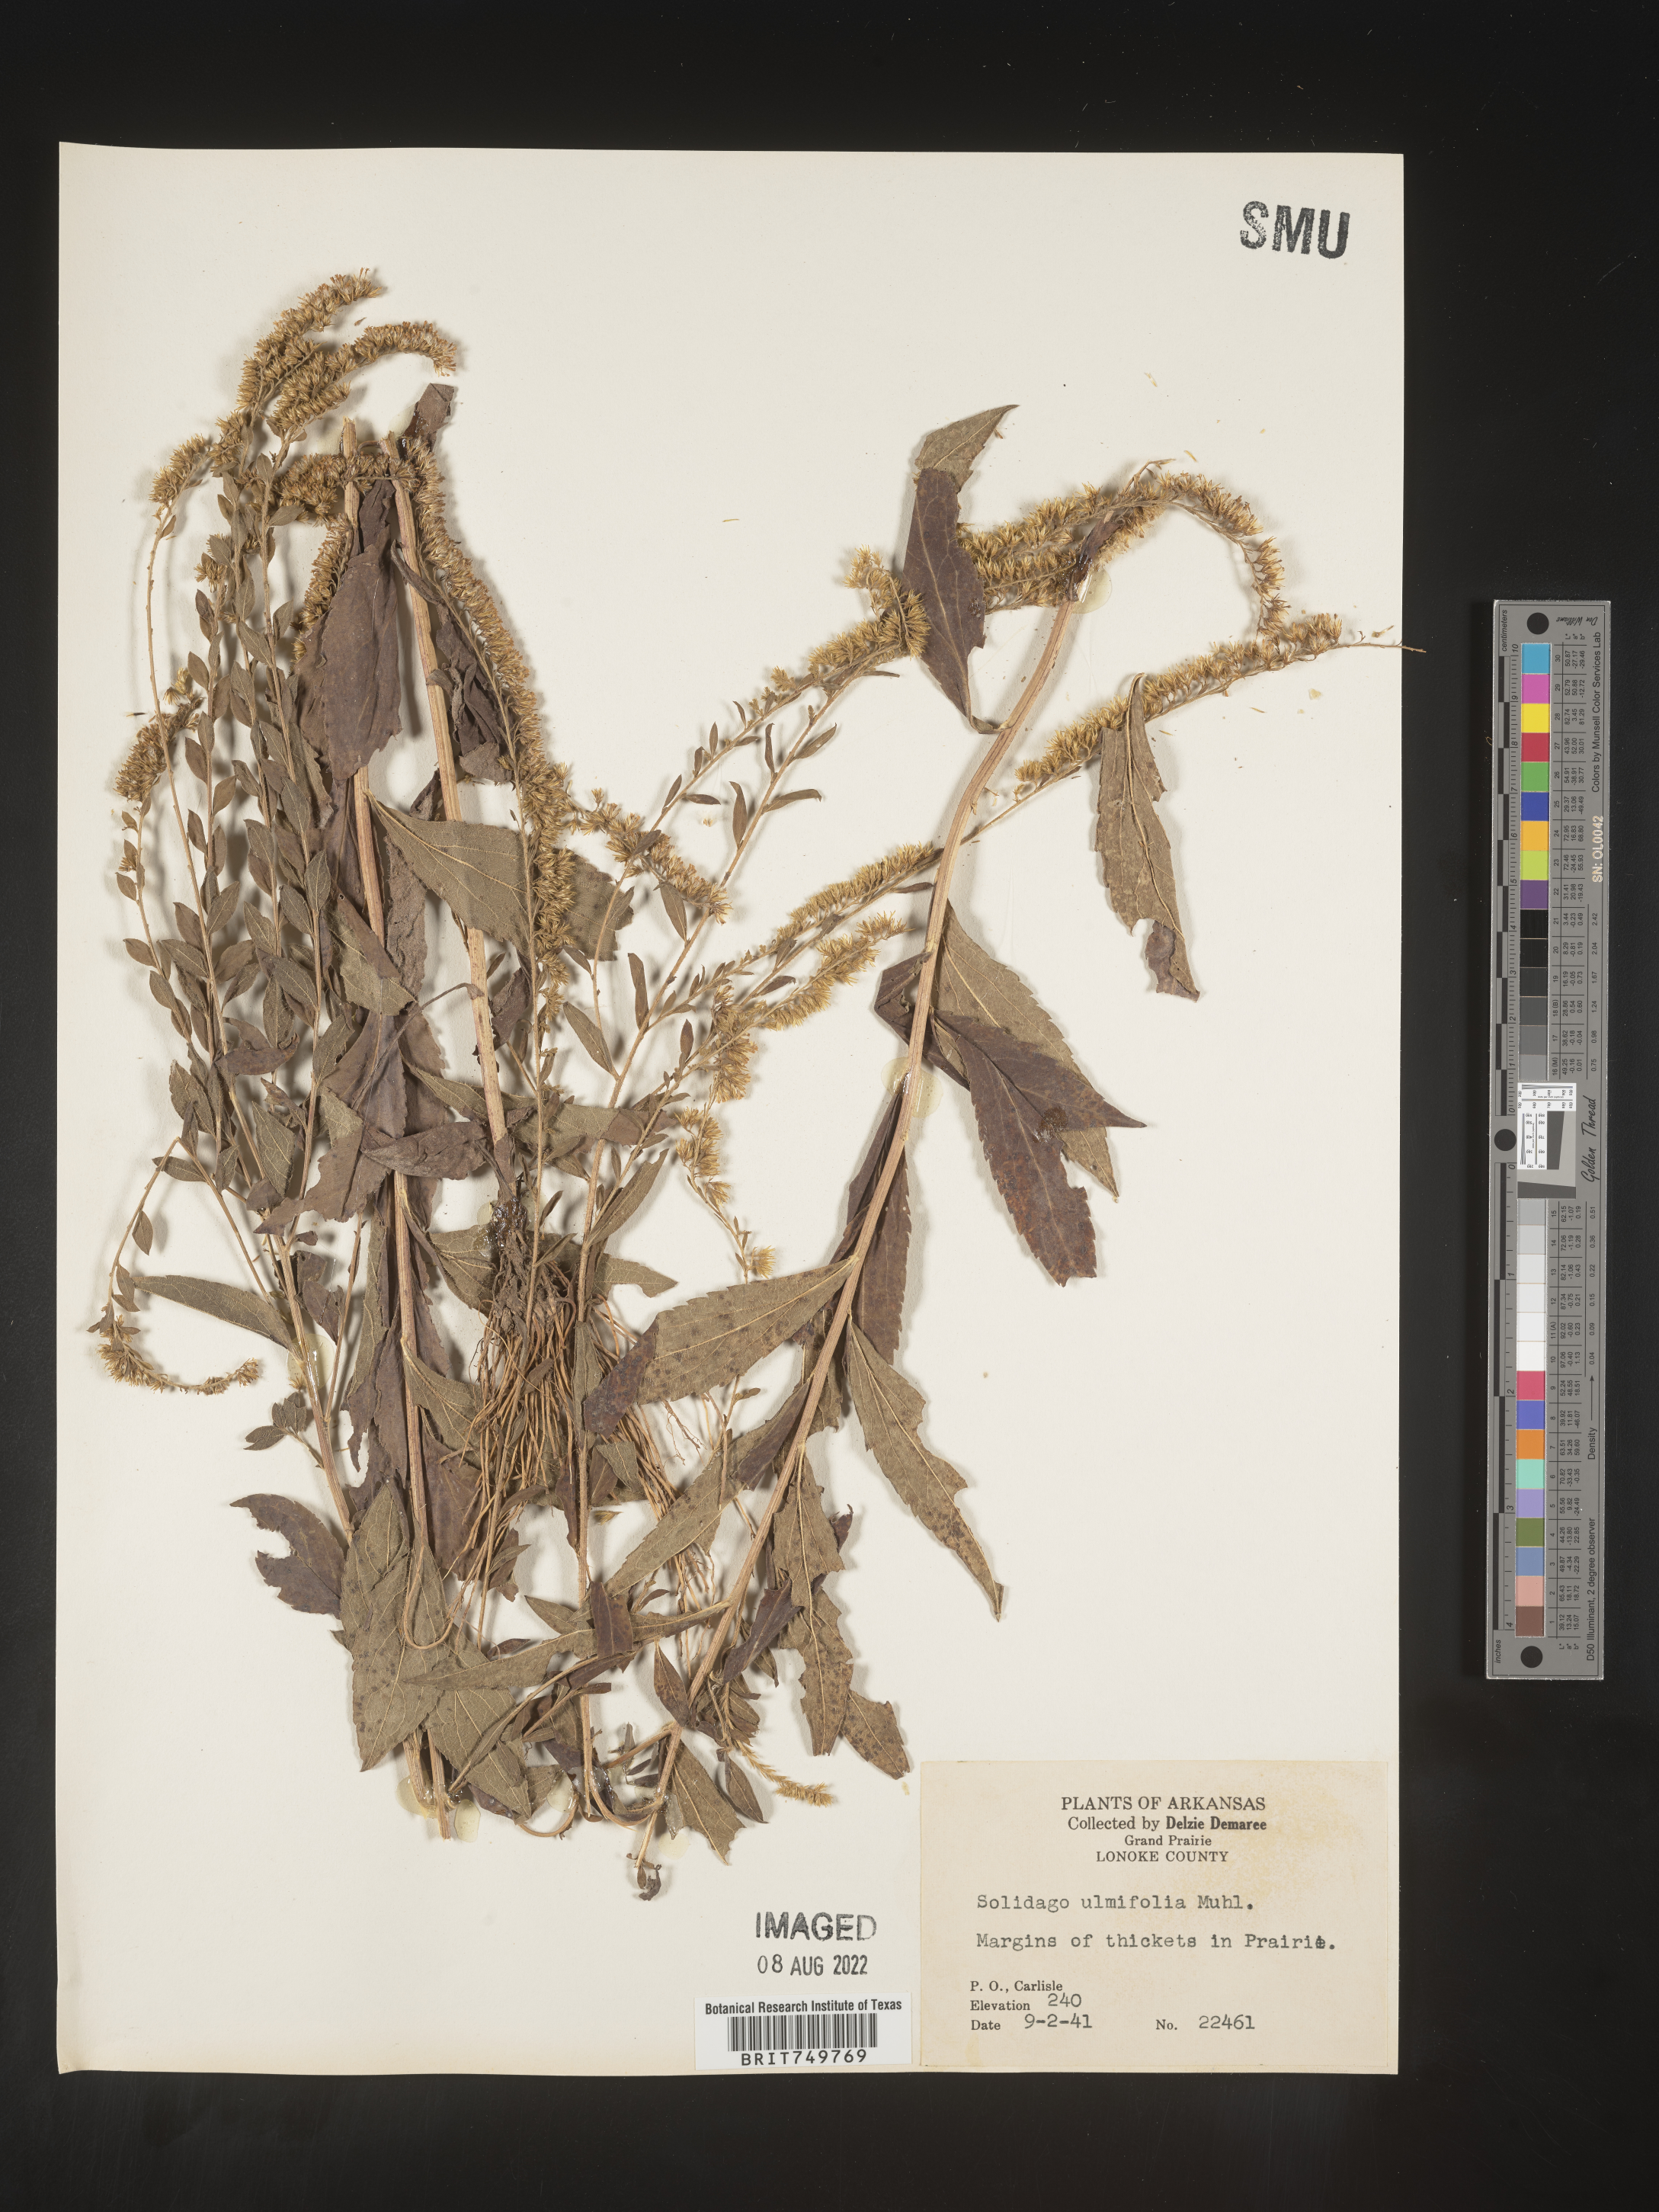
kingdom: Plantae
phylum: Tracheophyta
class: Magnoliopsida
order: Asterales
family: Asteraceae
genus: Solidago
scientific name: Solidago ulmifolia
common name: Elm-leaf goldenrod
